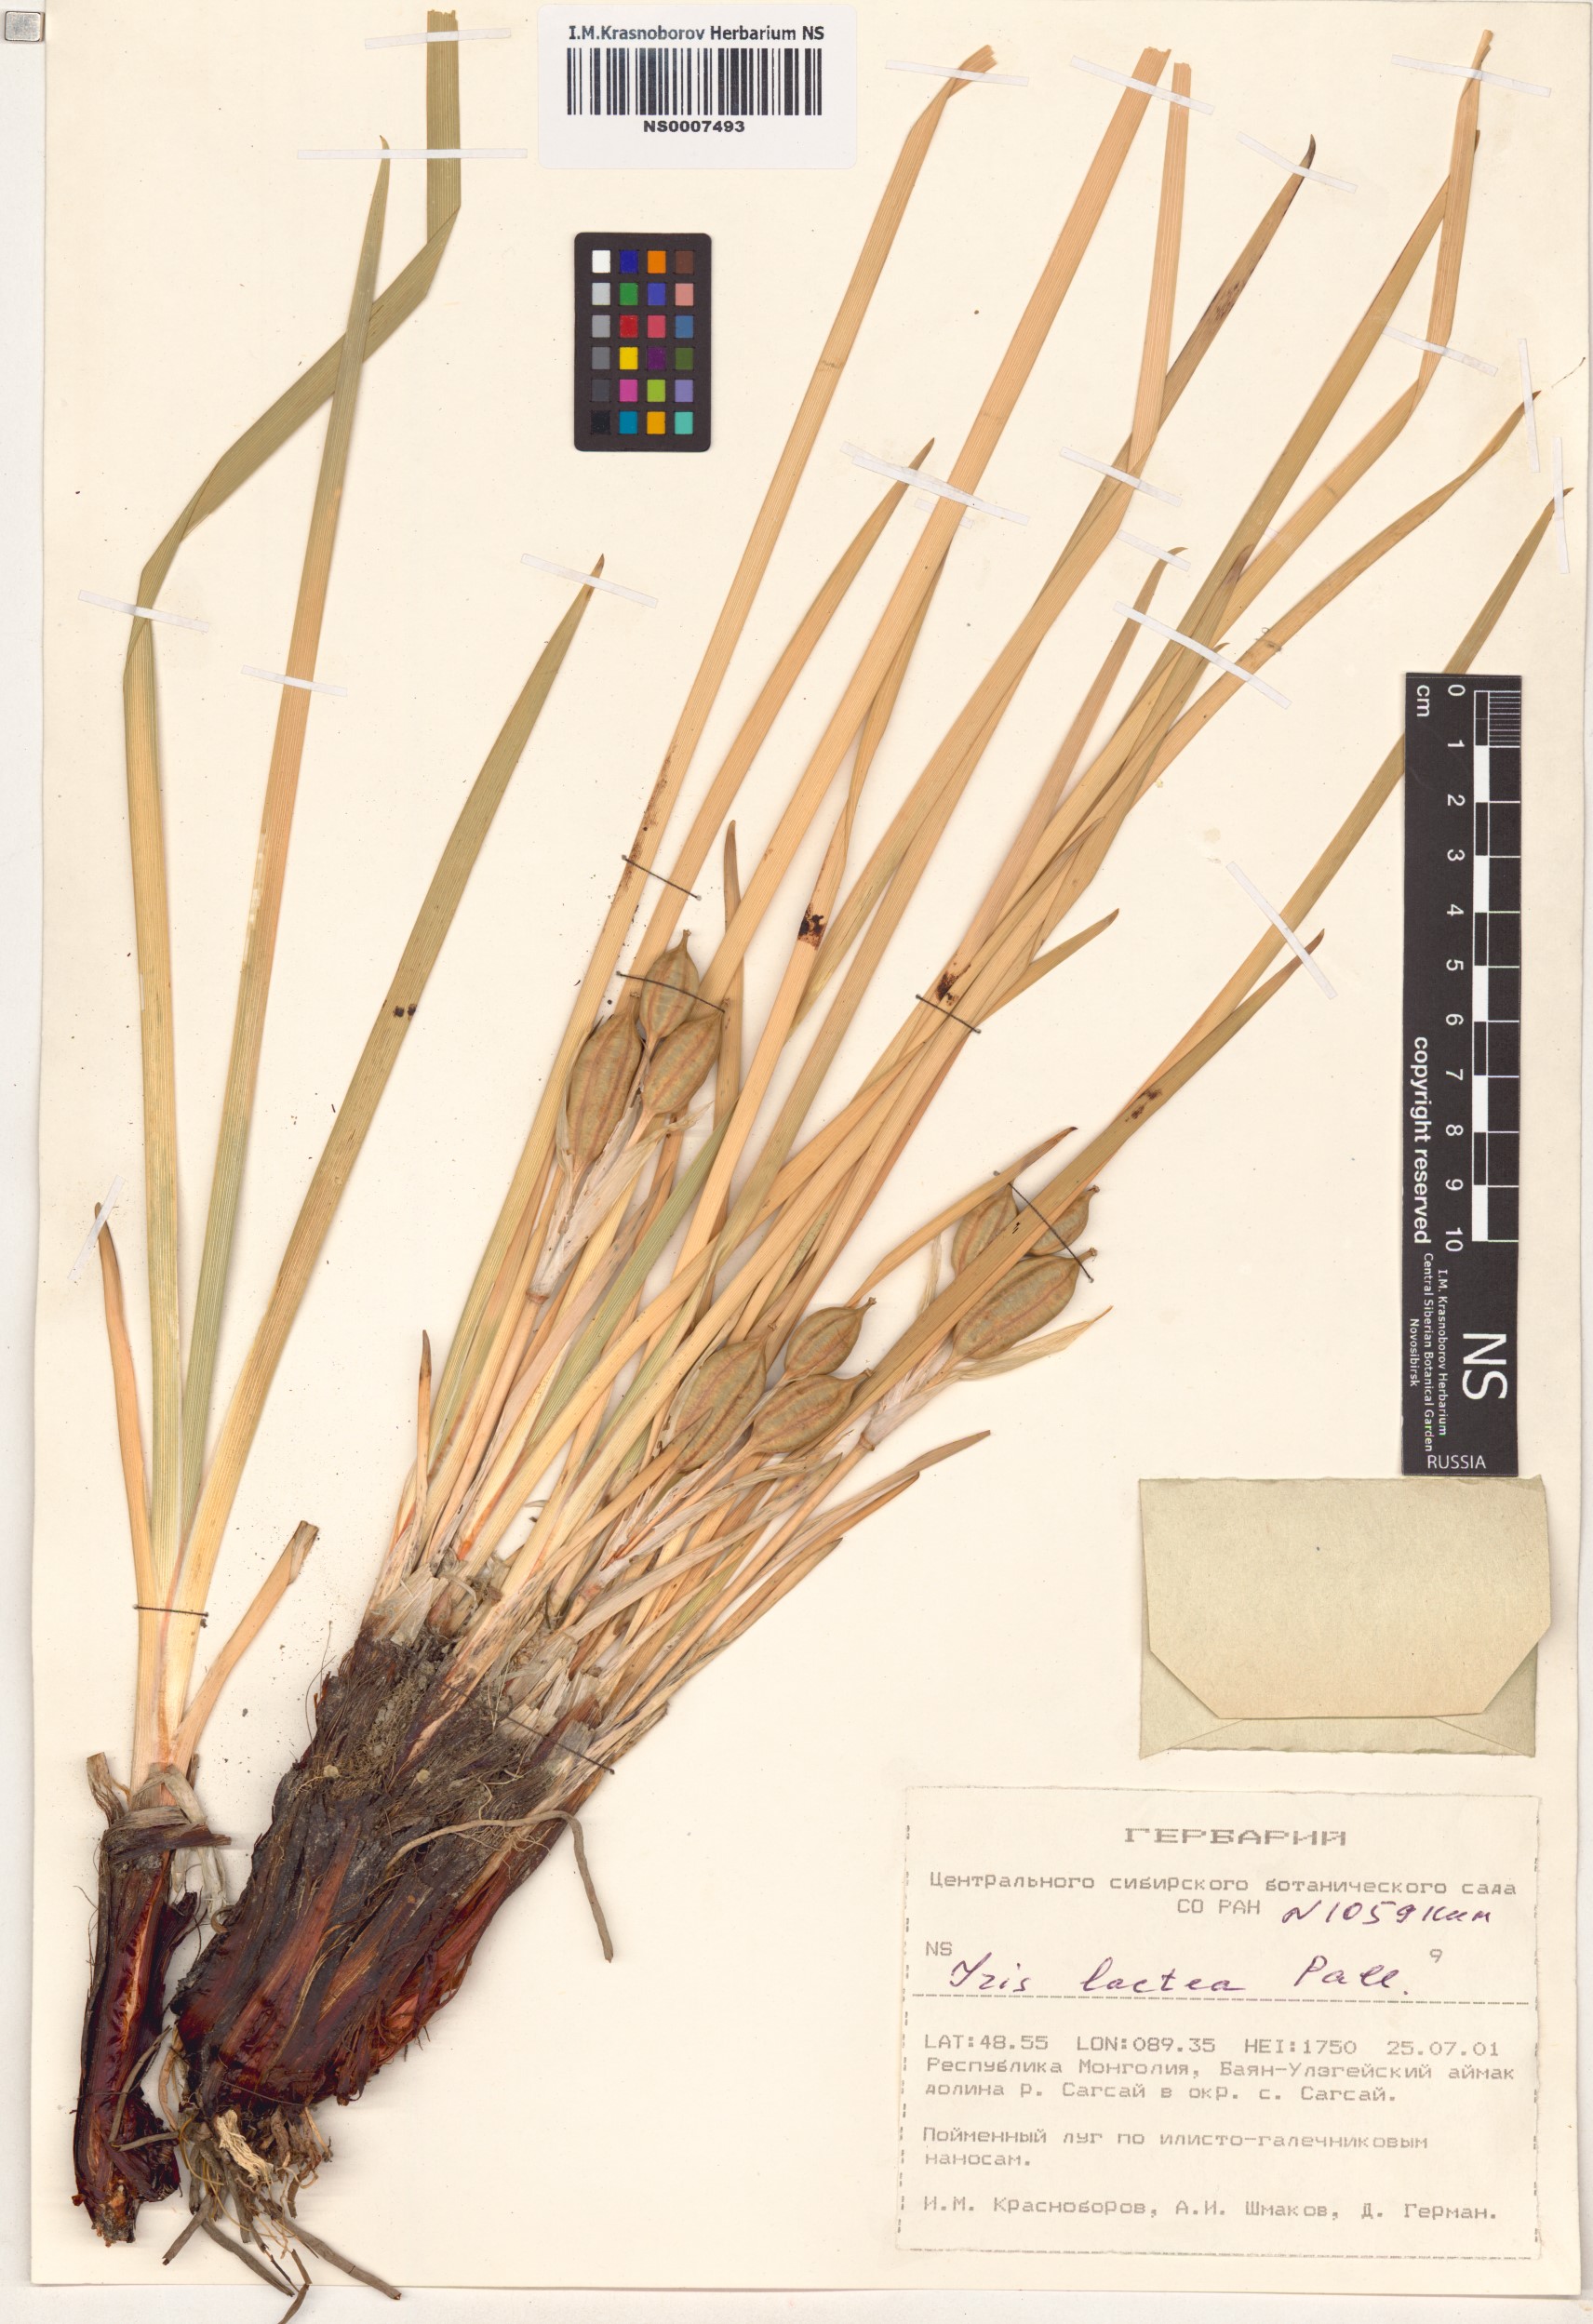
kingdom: Plantae
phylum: Tracheophyta
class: Liliopsida
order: Asparagales
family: Iridaceae
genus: Iris
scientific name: Iris lactea
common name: White-flower chinese iris
